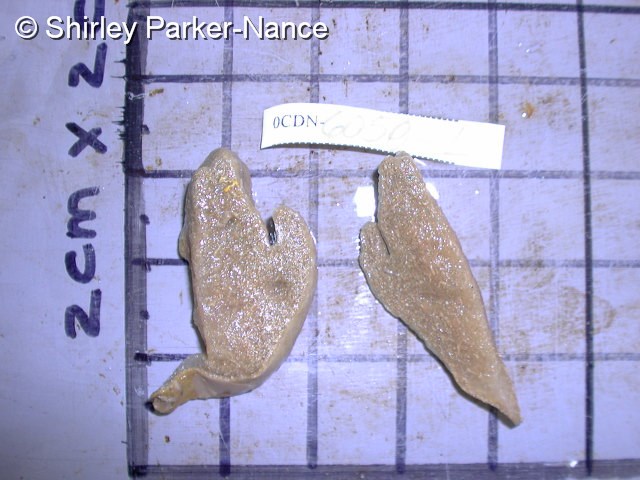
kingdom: Animalia
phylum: Chordata
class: Ascidiacea
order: Aplousobranchia
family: Pseudodistomidae
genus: Pseudodistoma
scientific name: Pseudodistoma
